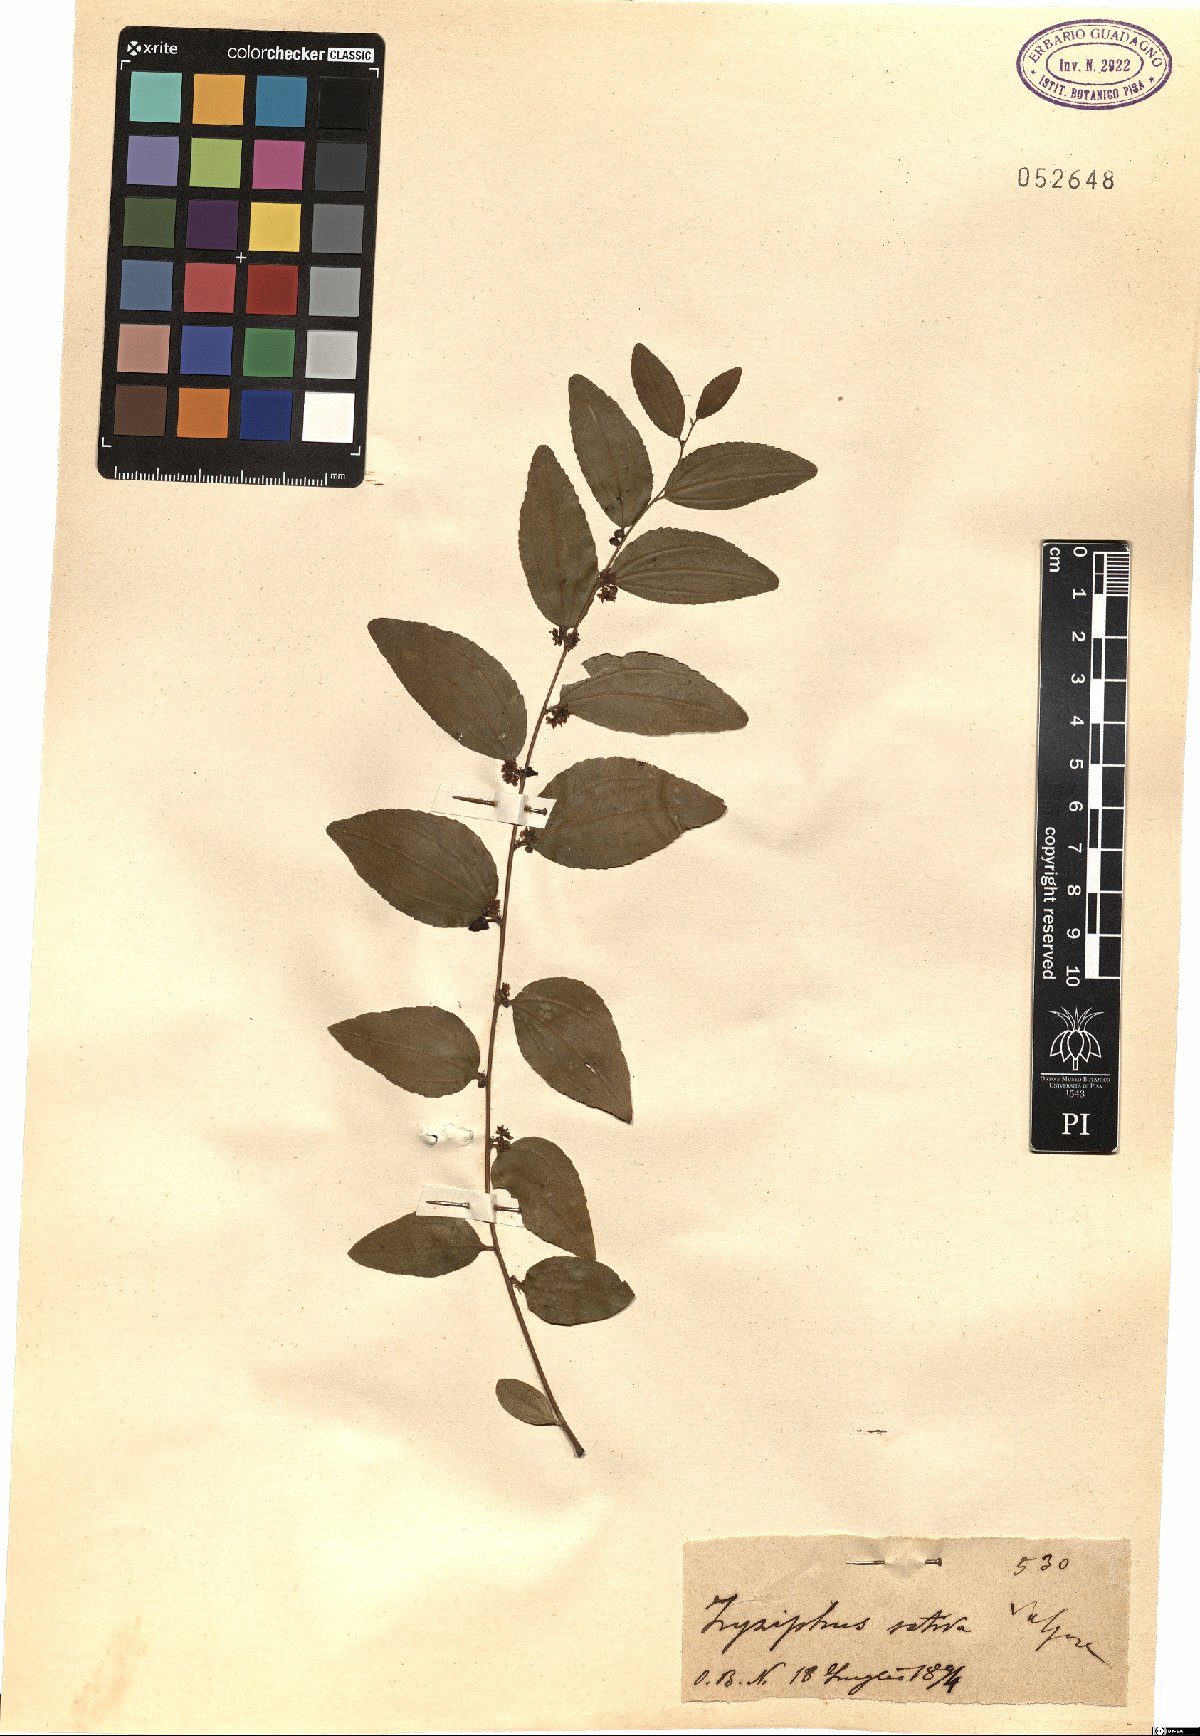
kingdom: Plantae
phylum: Tracheophyta
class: Magnoliopsida
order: Rosales
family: Rhamnaceae
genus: Ziziphus
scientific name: Ziziphus jujuba
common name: Jujube red date
